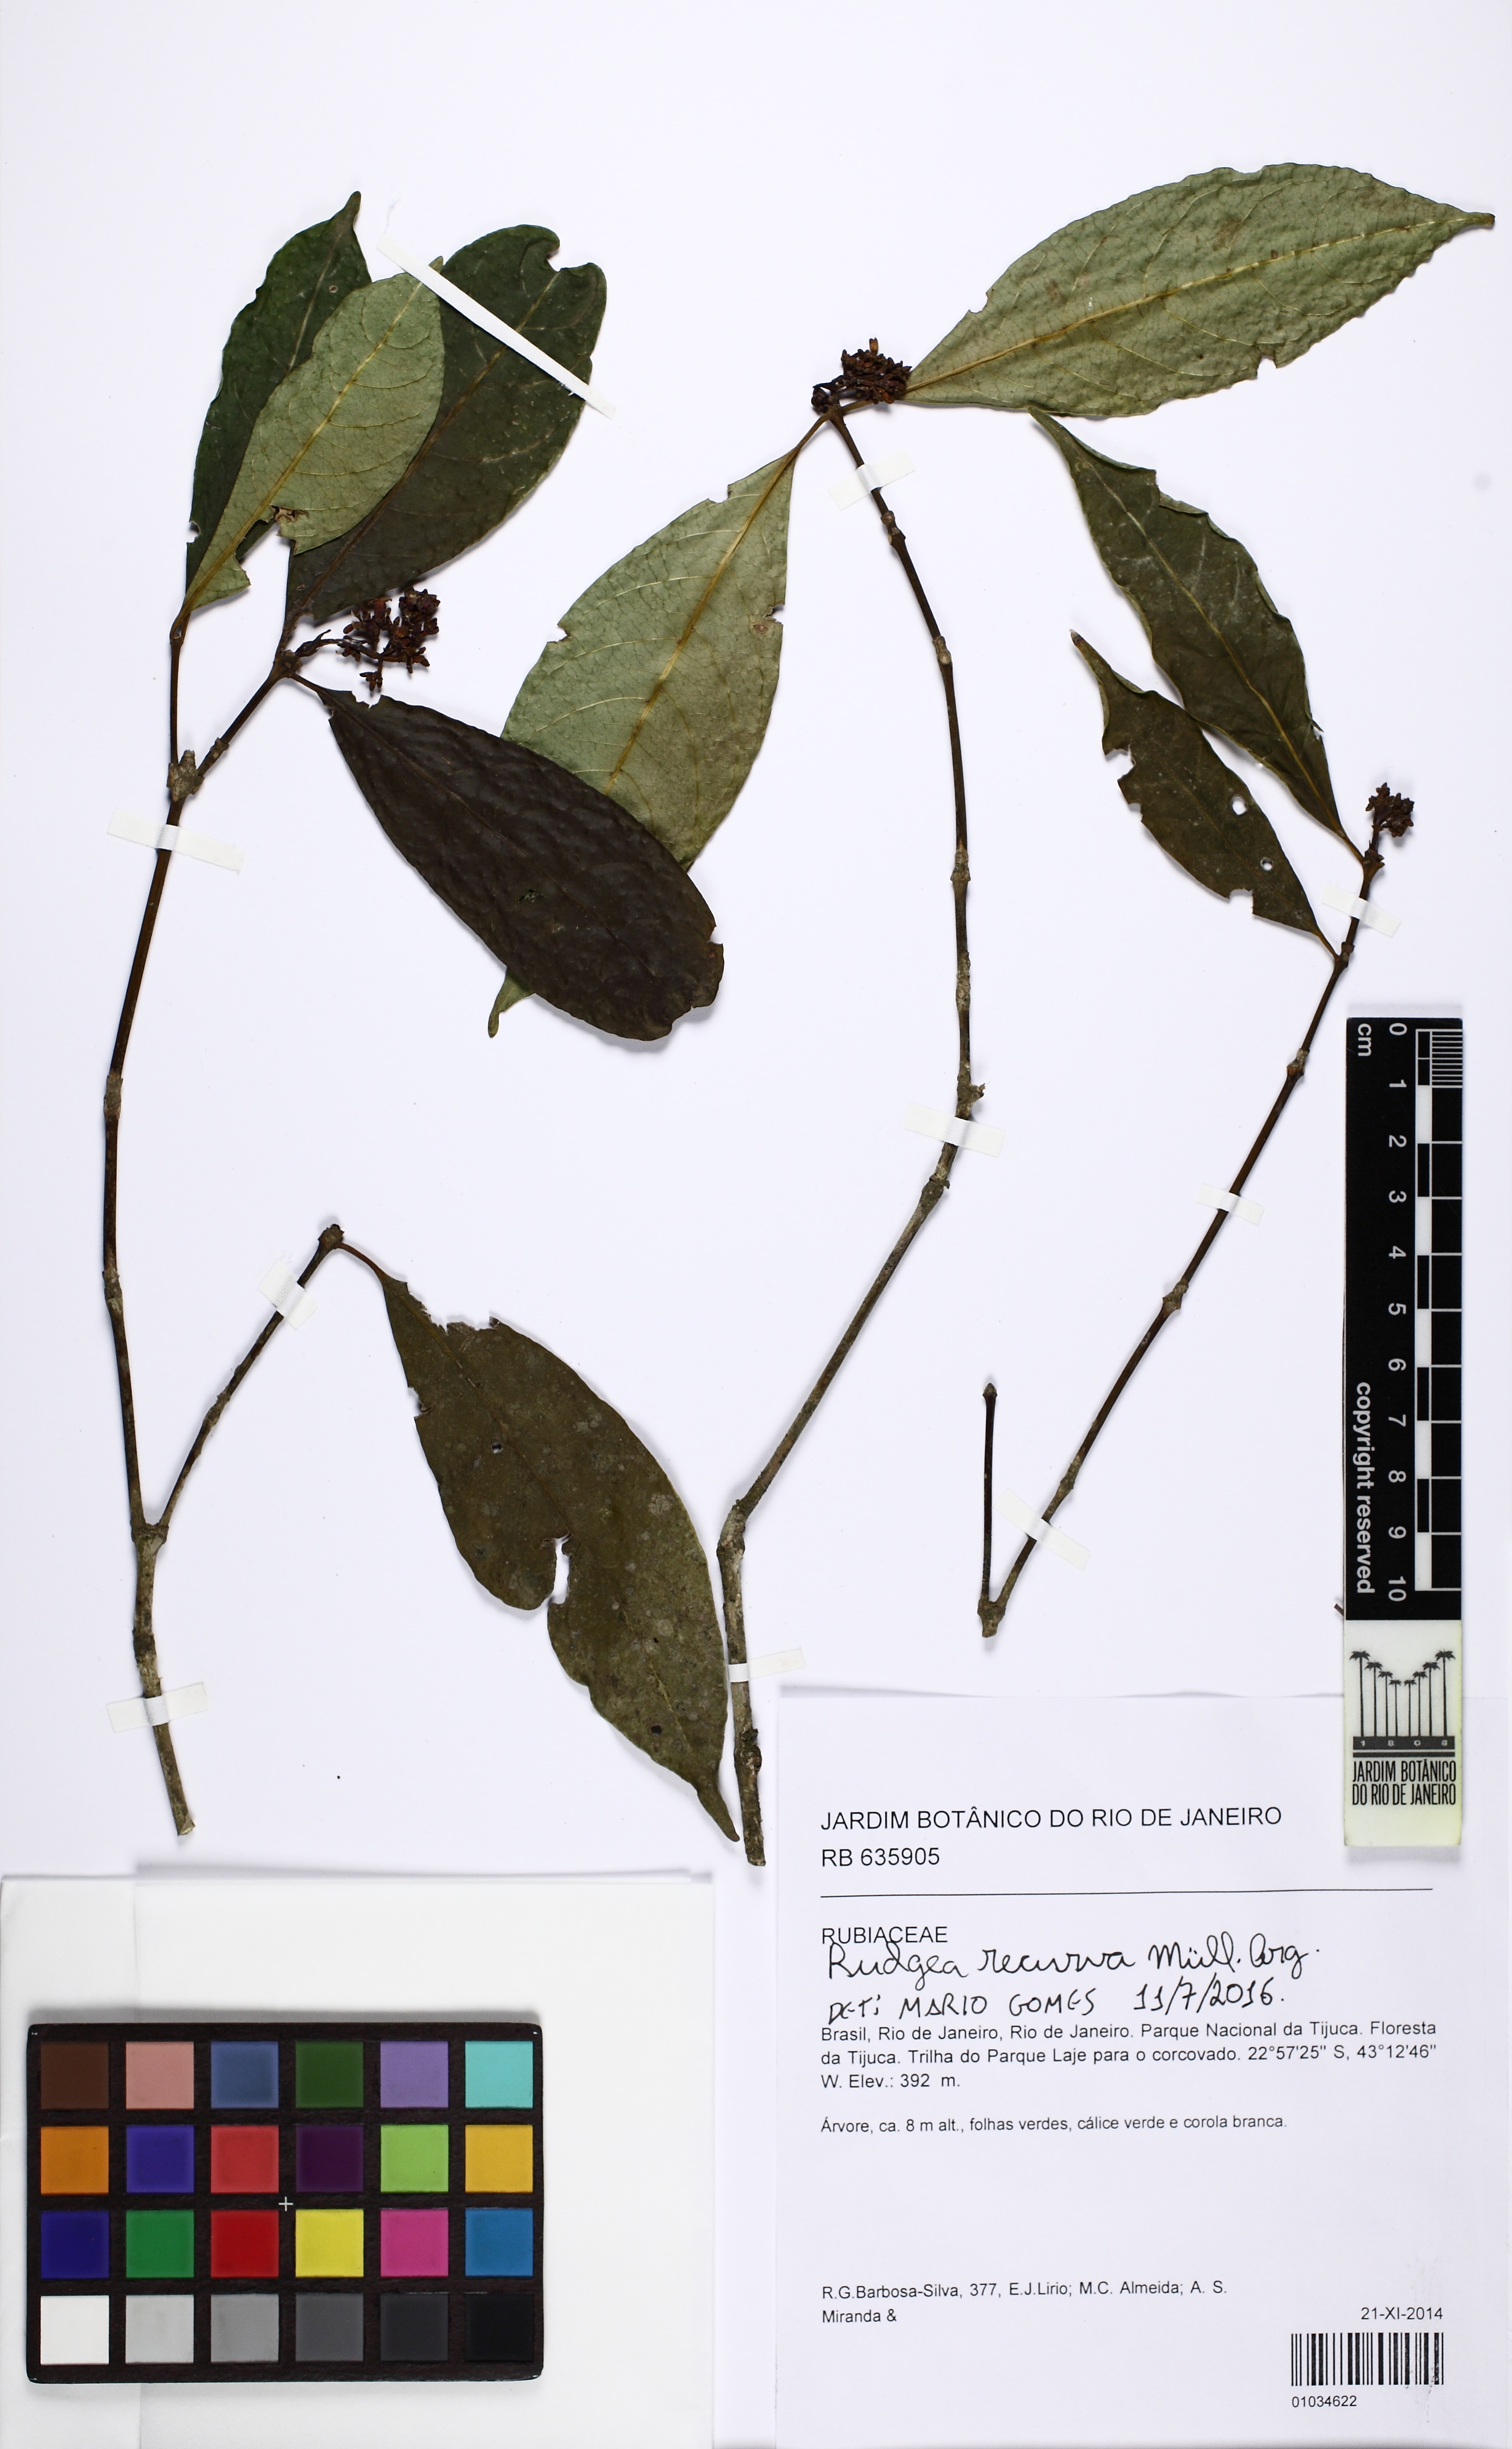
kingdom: Plantae
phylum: Tracheophyta
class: Magnoliopsida
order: Gentianales
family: Rubiaceae
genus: Rudgea
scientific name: Rudgea recurva
